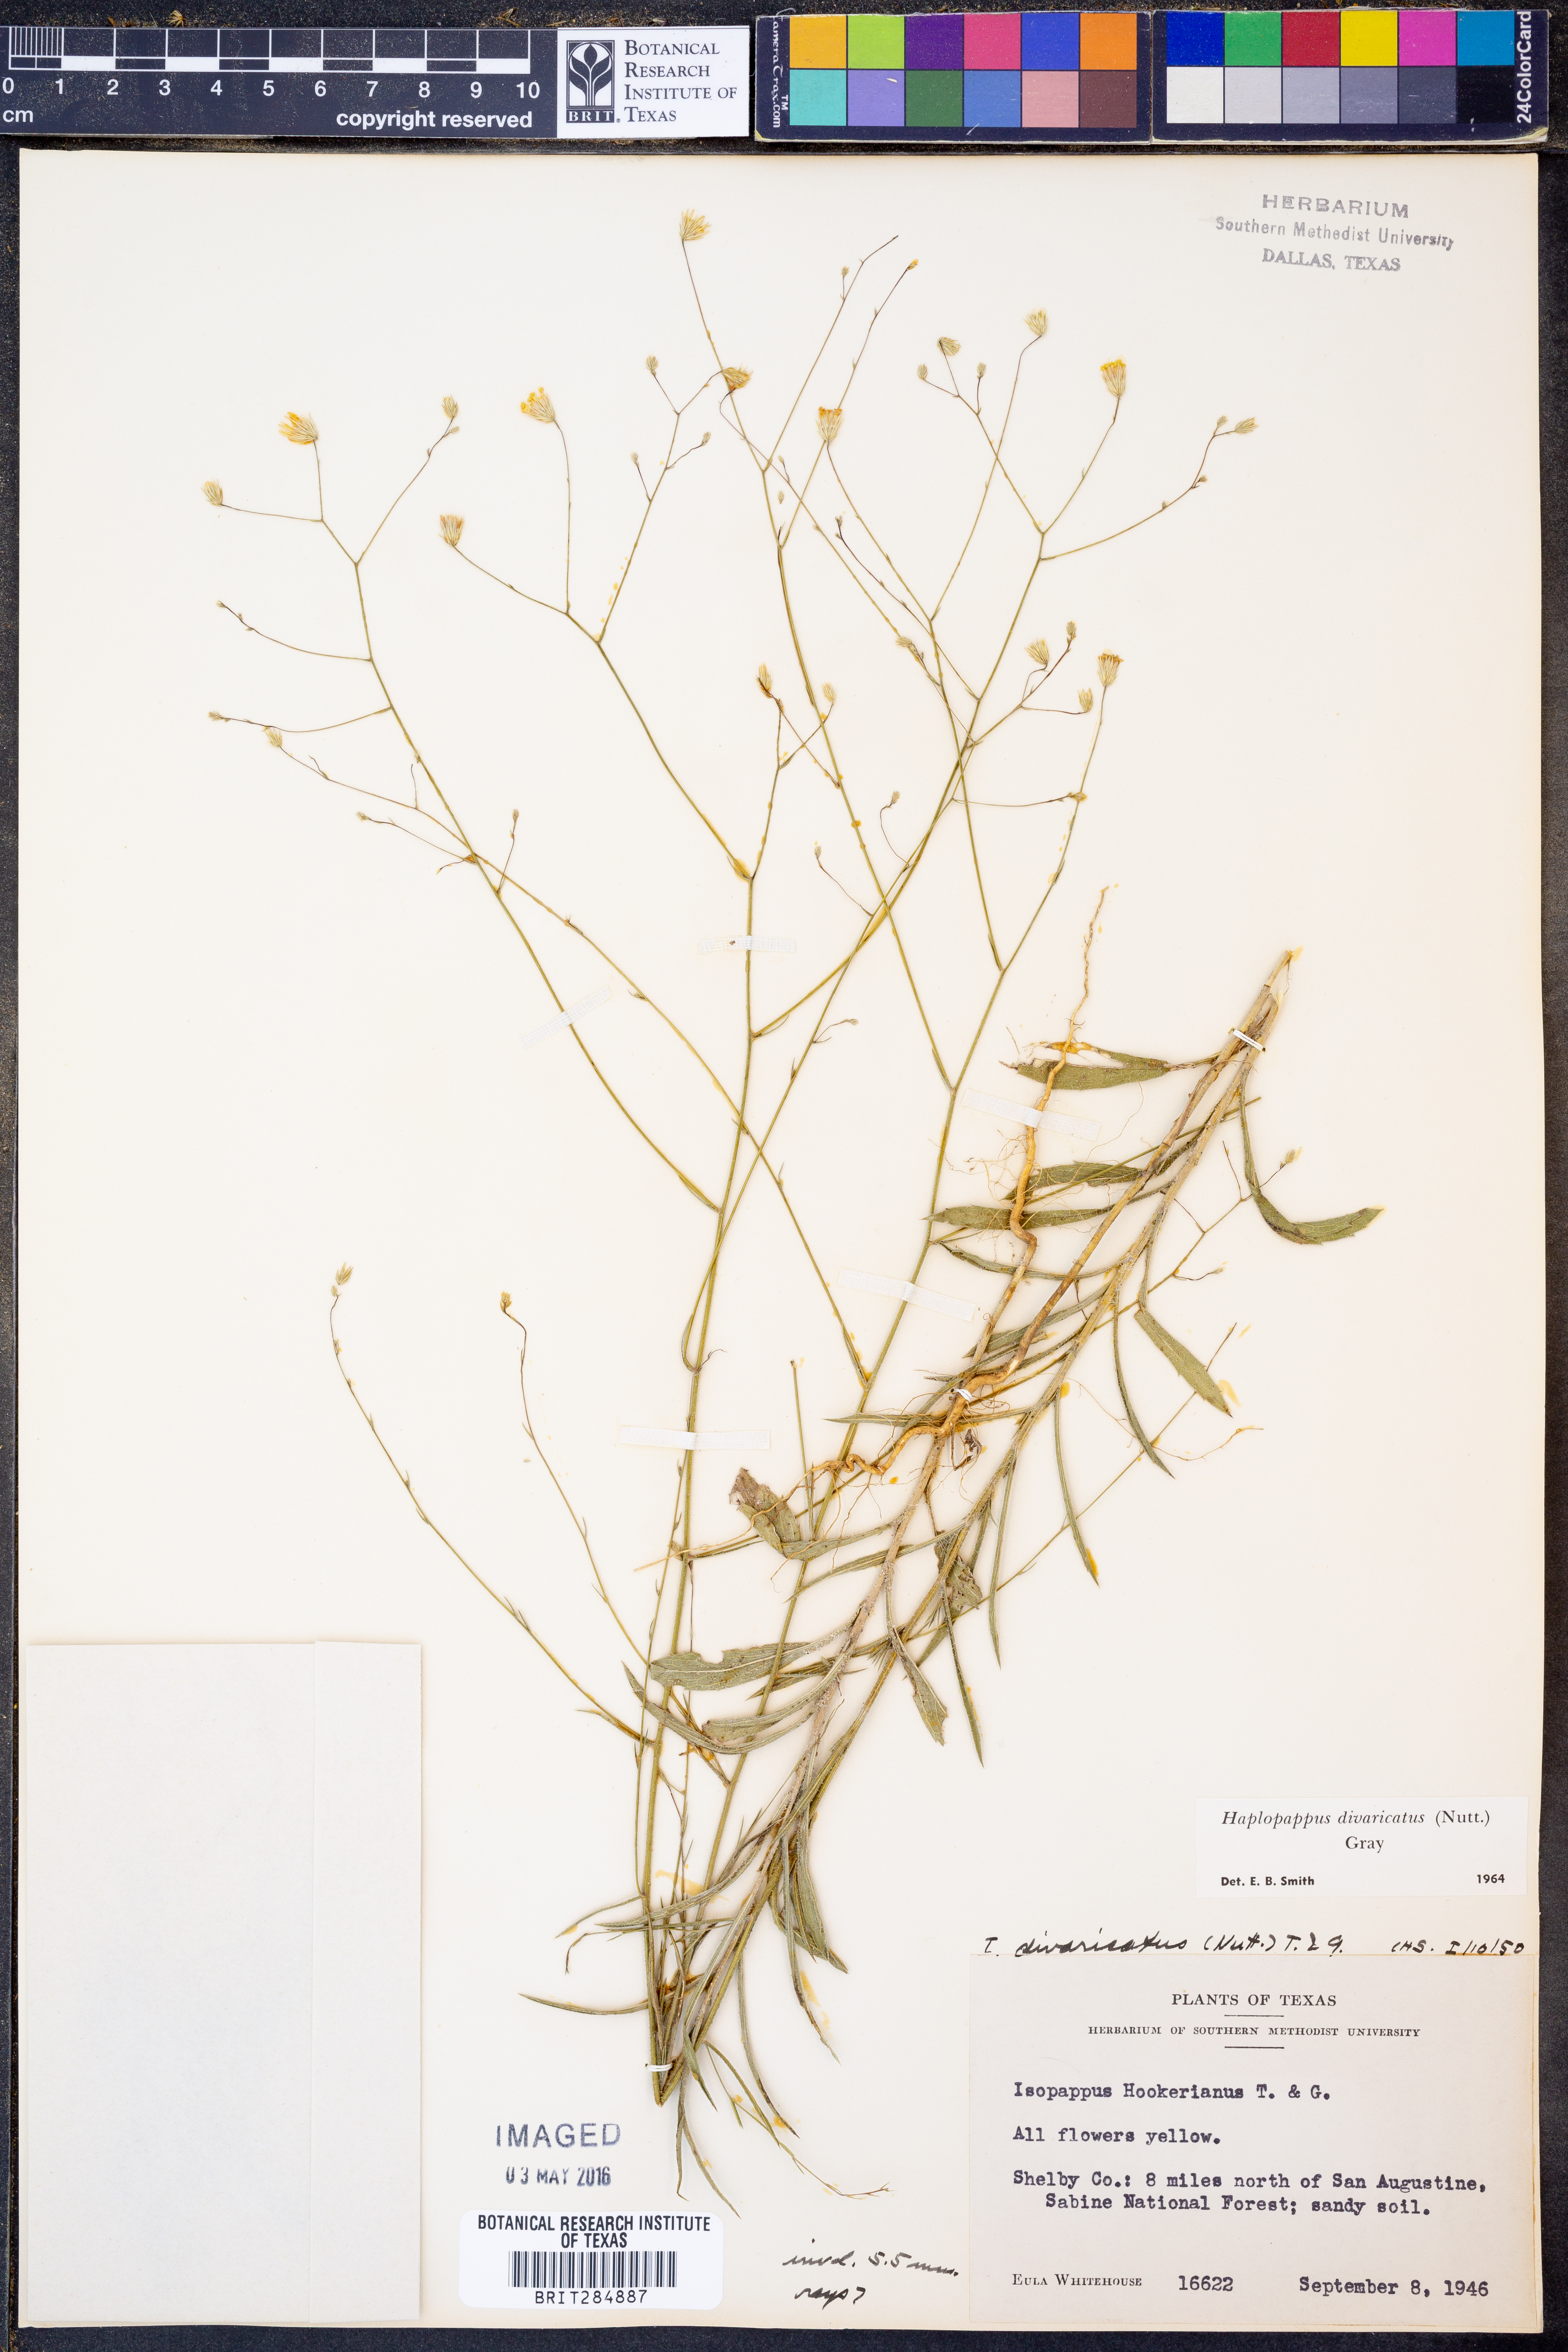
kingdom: Plantae
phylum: Tracheophyta
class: Magnoliopsida
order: Asterales
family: Asteraceae
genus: Croptilon
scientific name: Croptilon divaricatum
